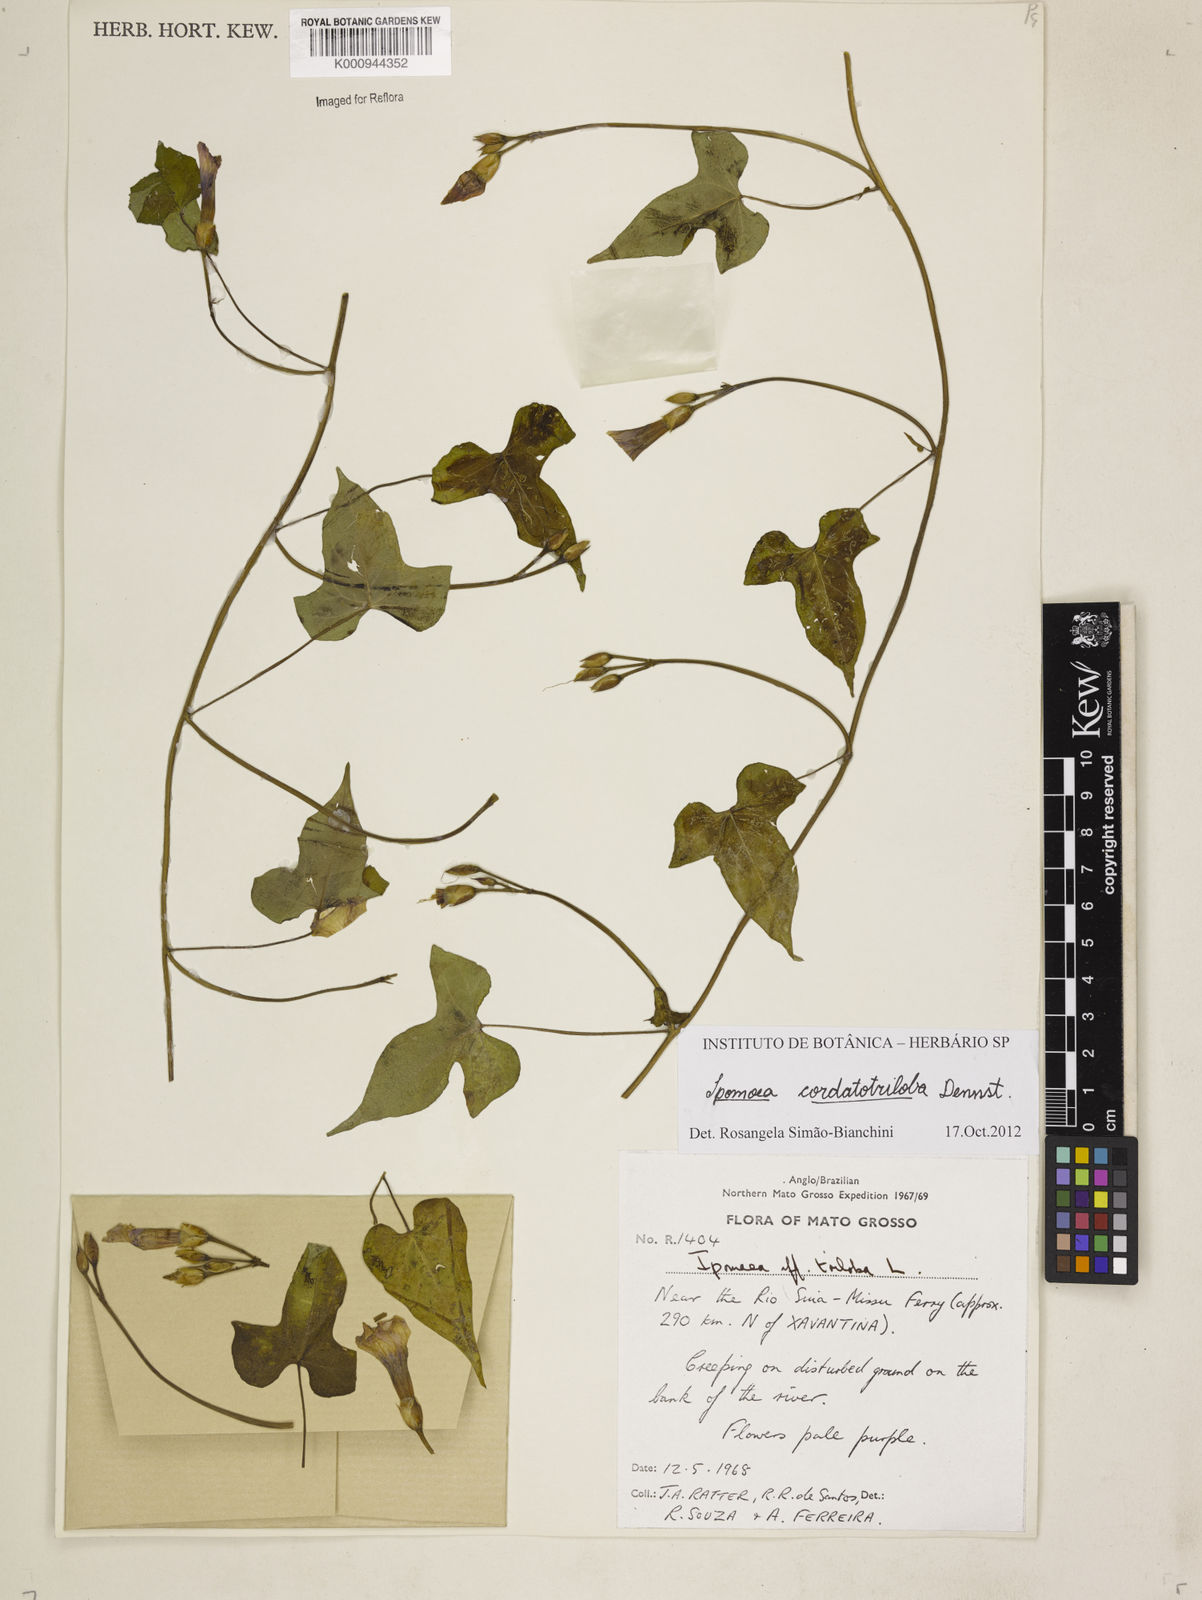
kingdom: Plantae
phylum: Tracheophyta
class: Magnoliopsida
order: Solanales
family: Convolvulaceae
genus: Ipomoea
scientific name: Ipomoea cordatotriloba
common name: Cotton morning glory
